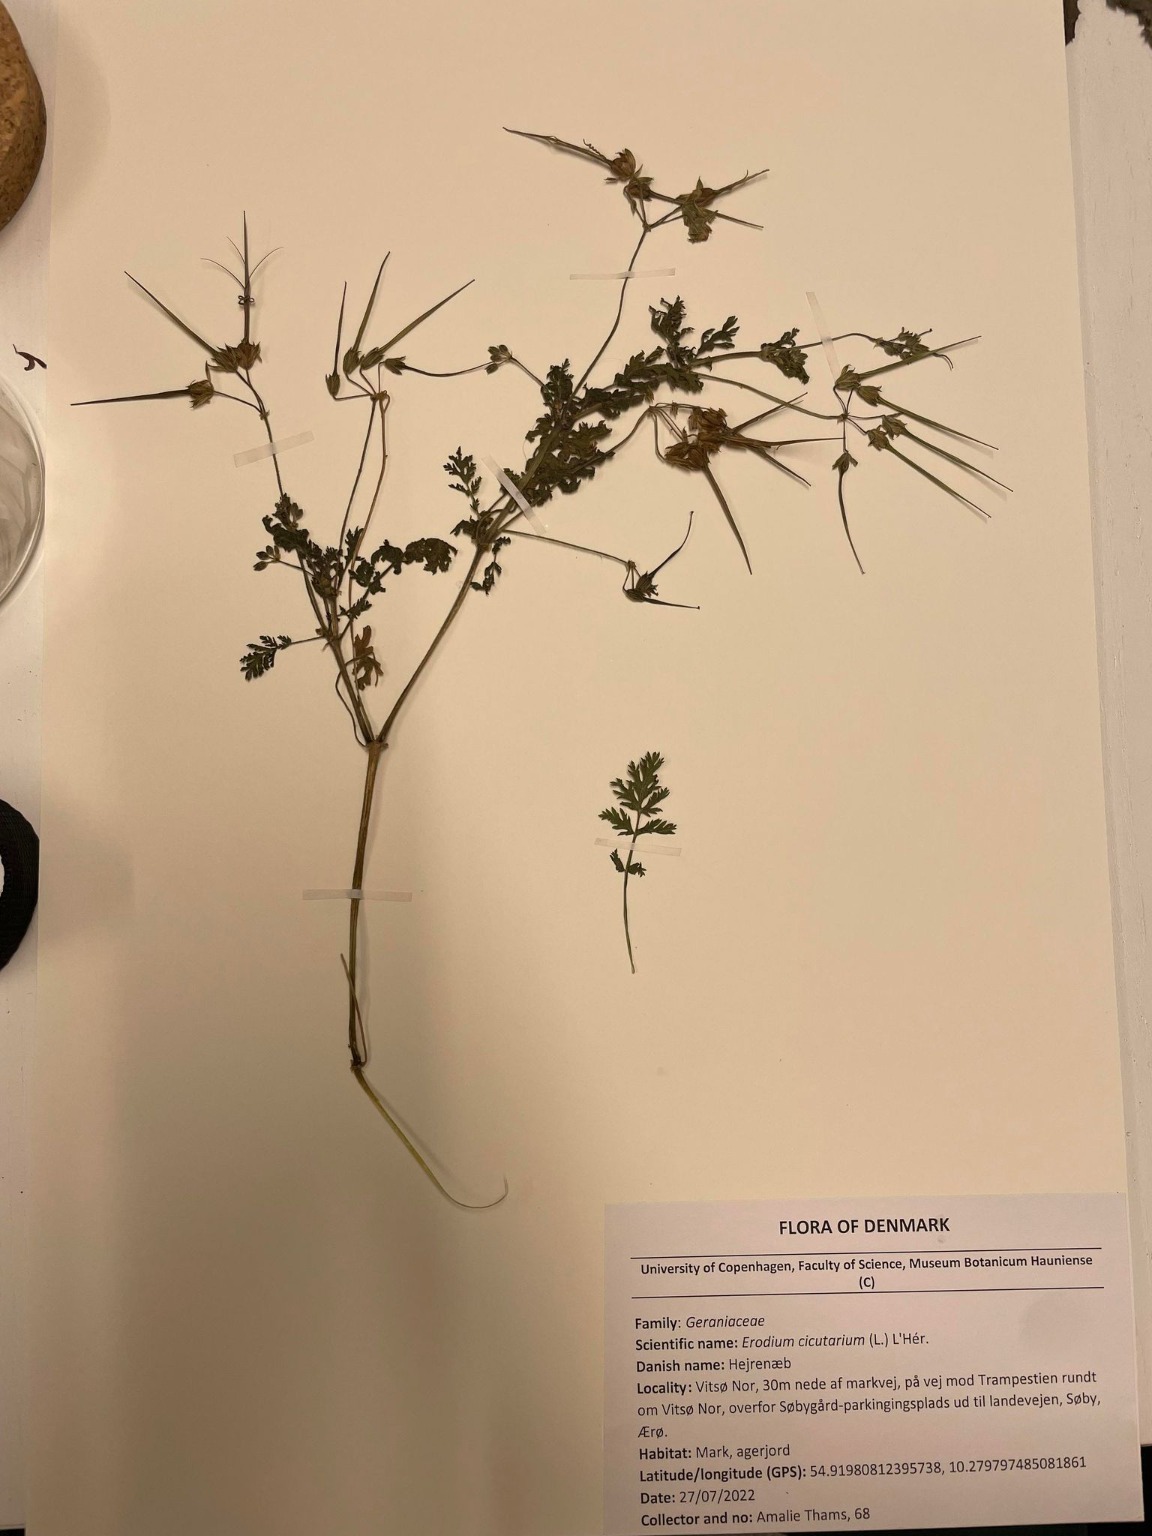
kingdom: Plantae
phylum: Tracheophyta
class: Magnoliopsida
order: Geraniales
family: Geraniaceae
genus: Erodium
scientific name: Erodium cicutarium
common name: Hejrenæb
